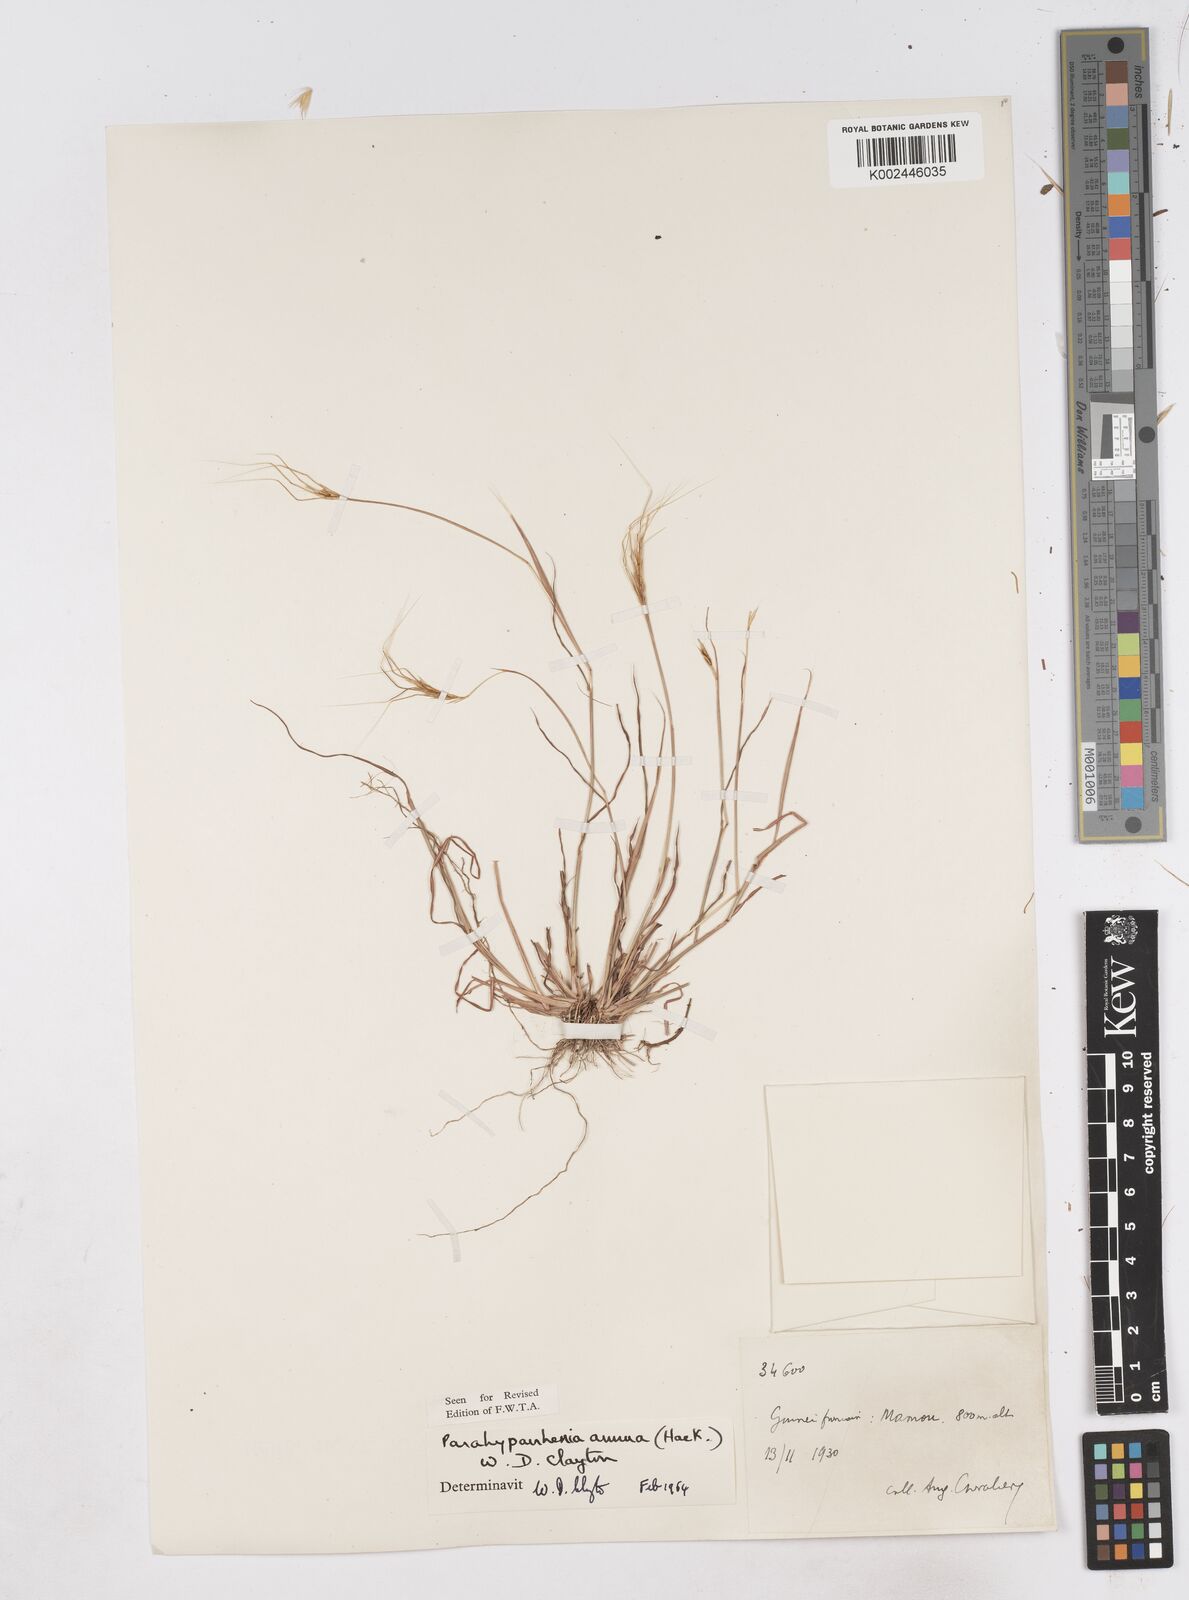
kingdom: Plantae
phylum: Tracheophyta
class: Liliopsida
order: Poales
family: Poaceae
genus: Parahyparrhenia
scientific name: Parahyparrhenia annua
